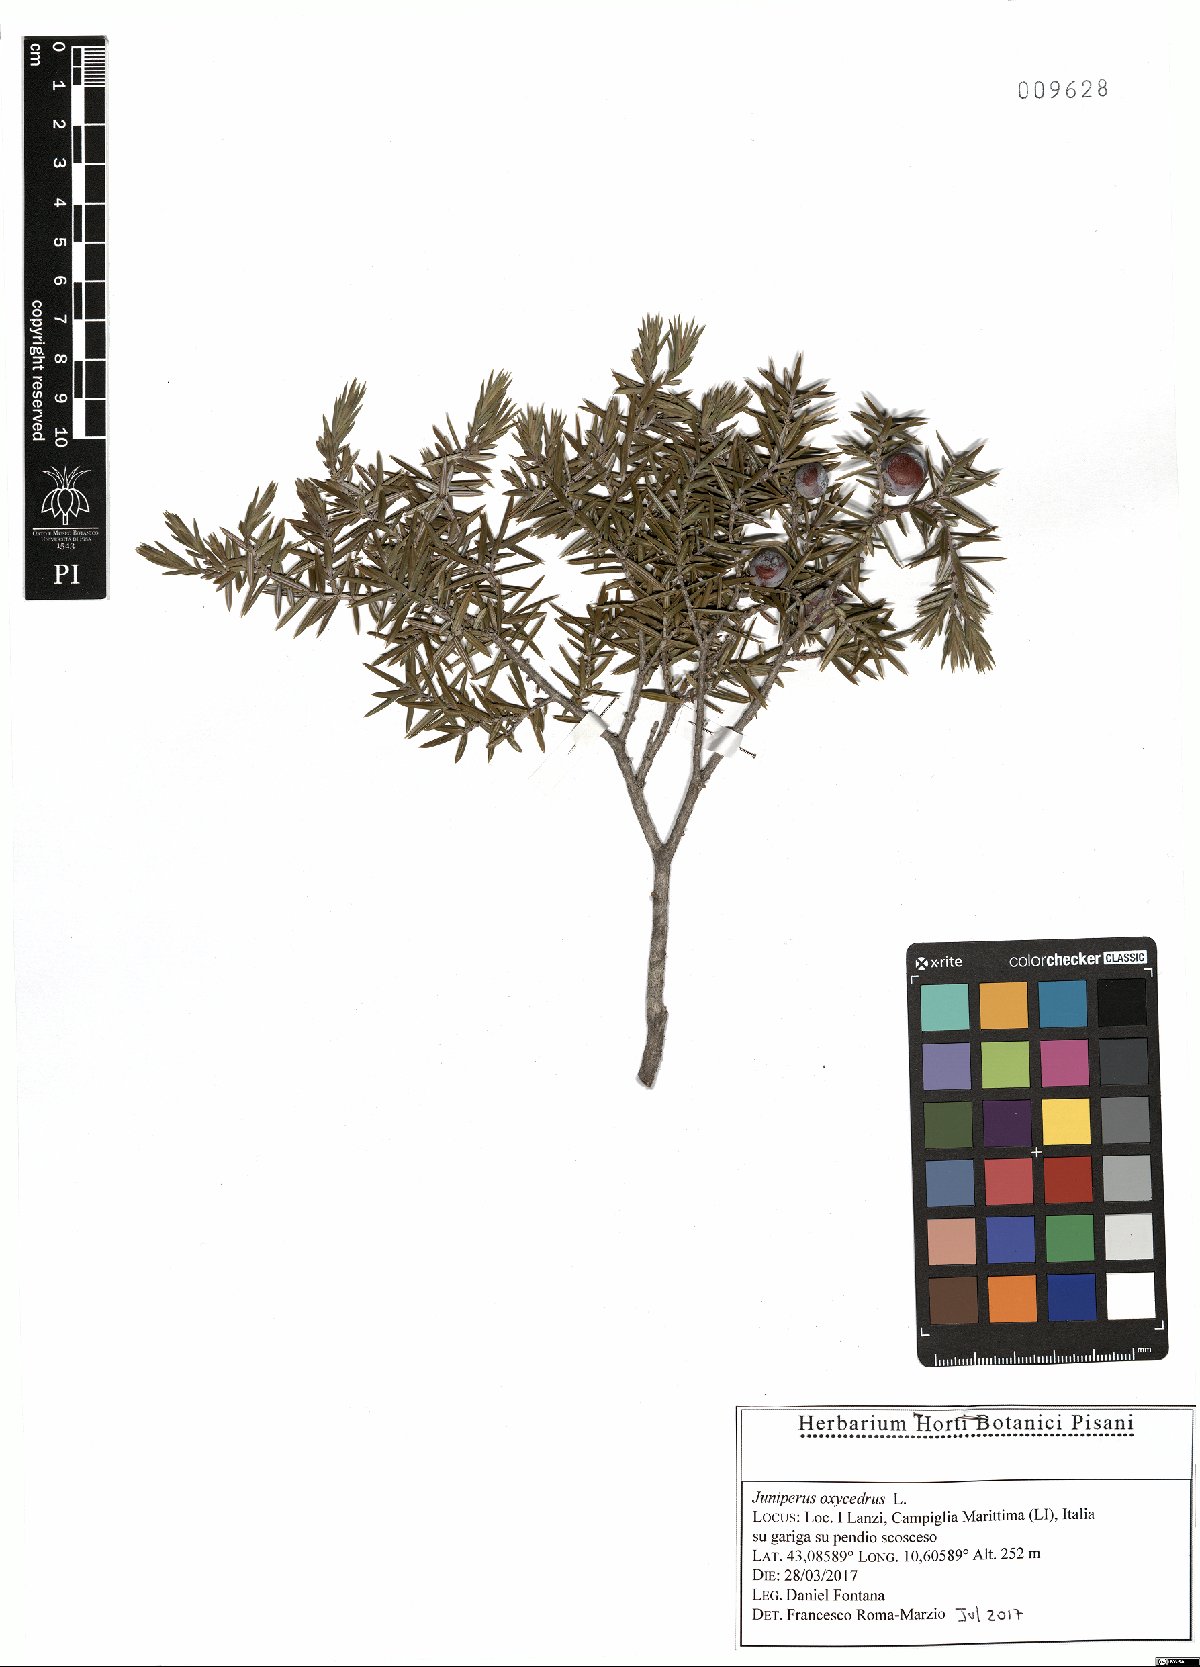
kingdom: Plantae
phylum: Tracheophyta
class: Pinopsida
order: Pinales
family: Cupressaceae
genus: Juniperus
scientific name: Juniperus oxycedrus
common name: Prickly juniper
